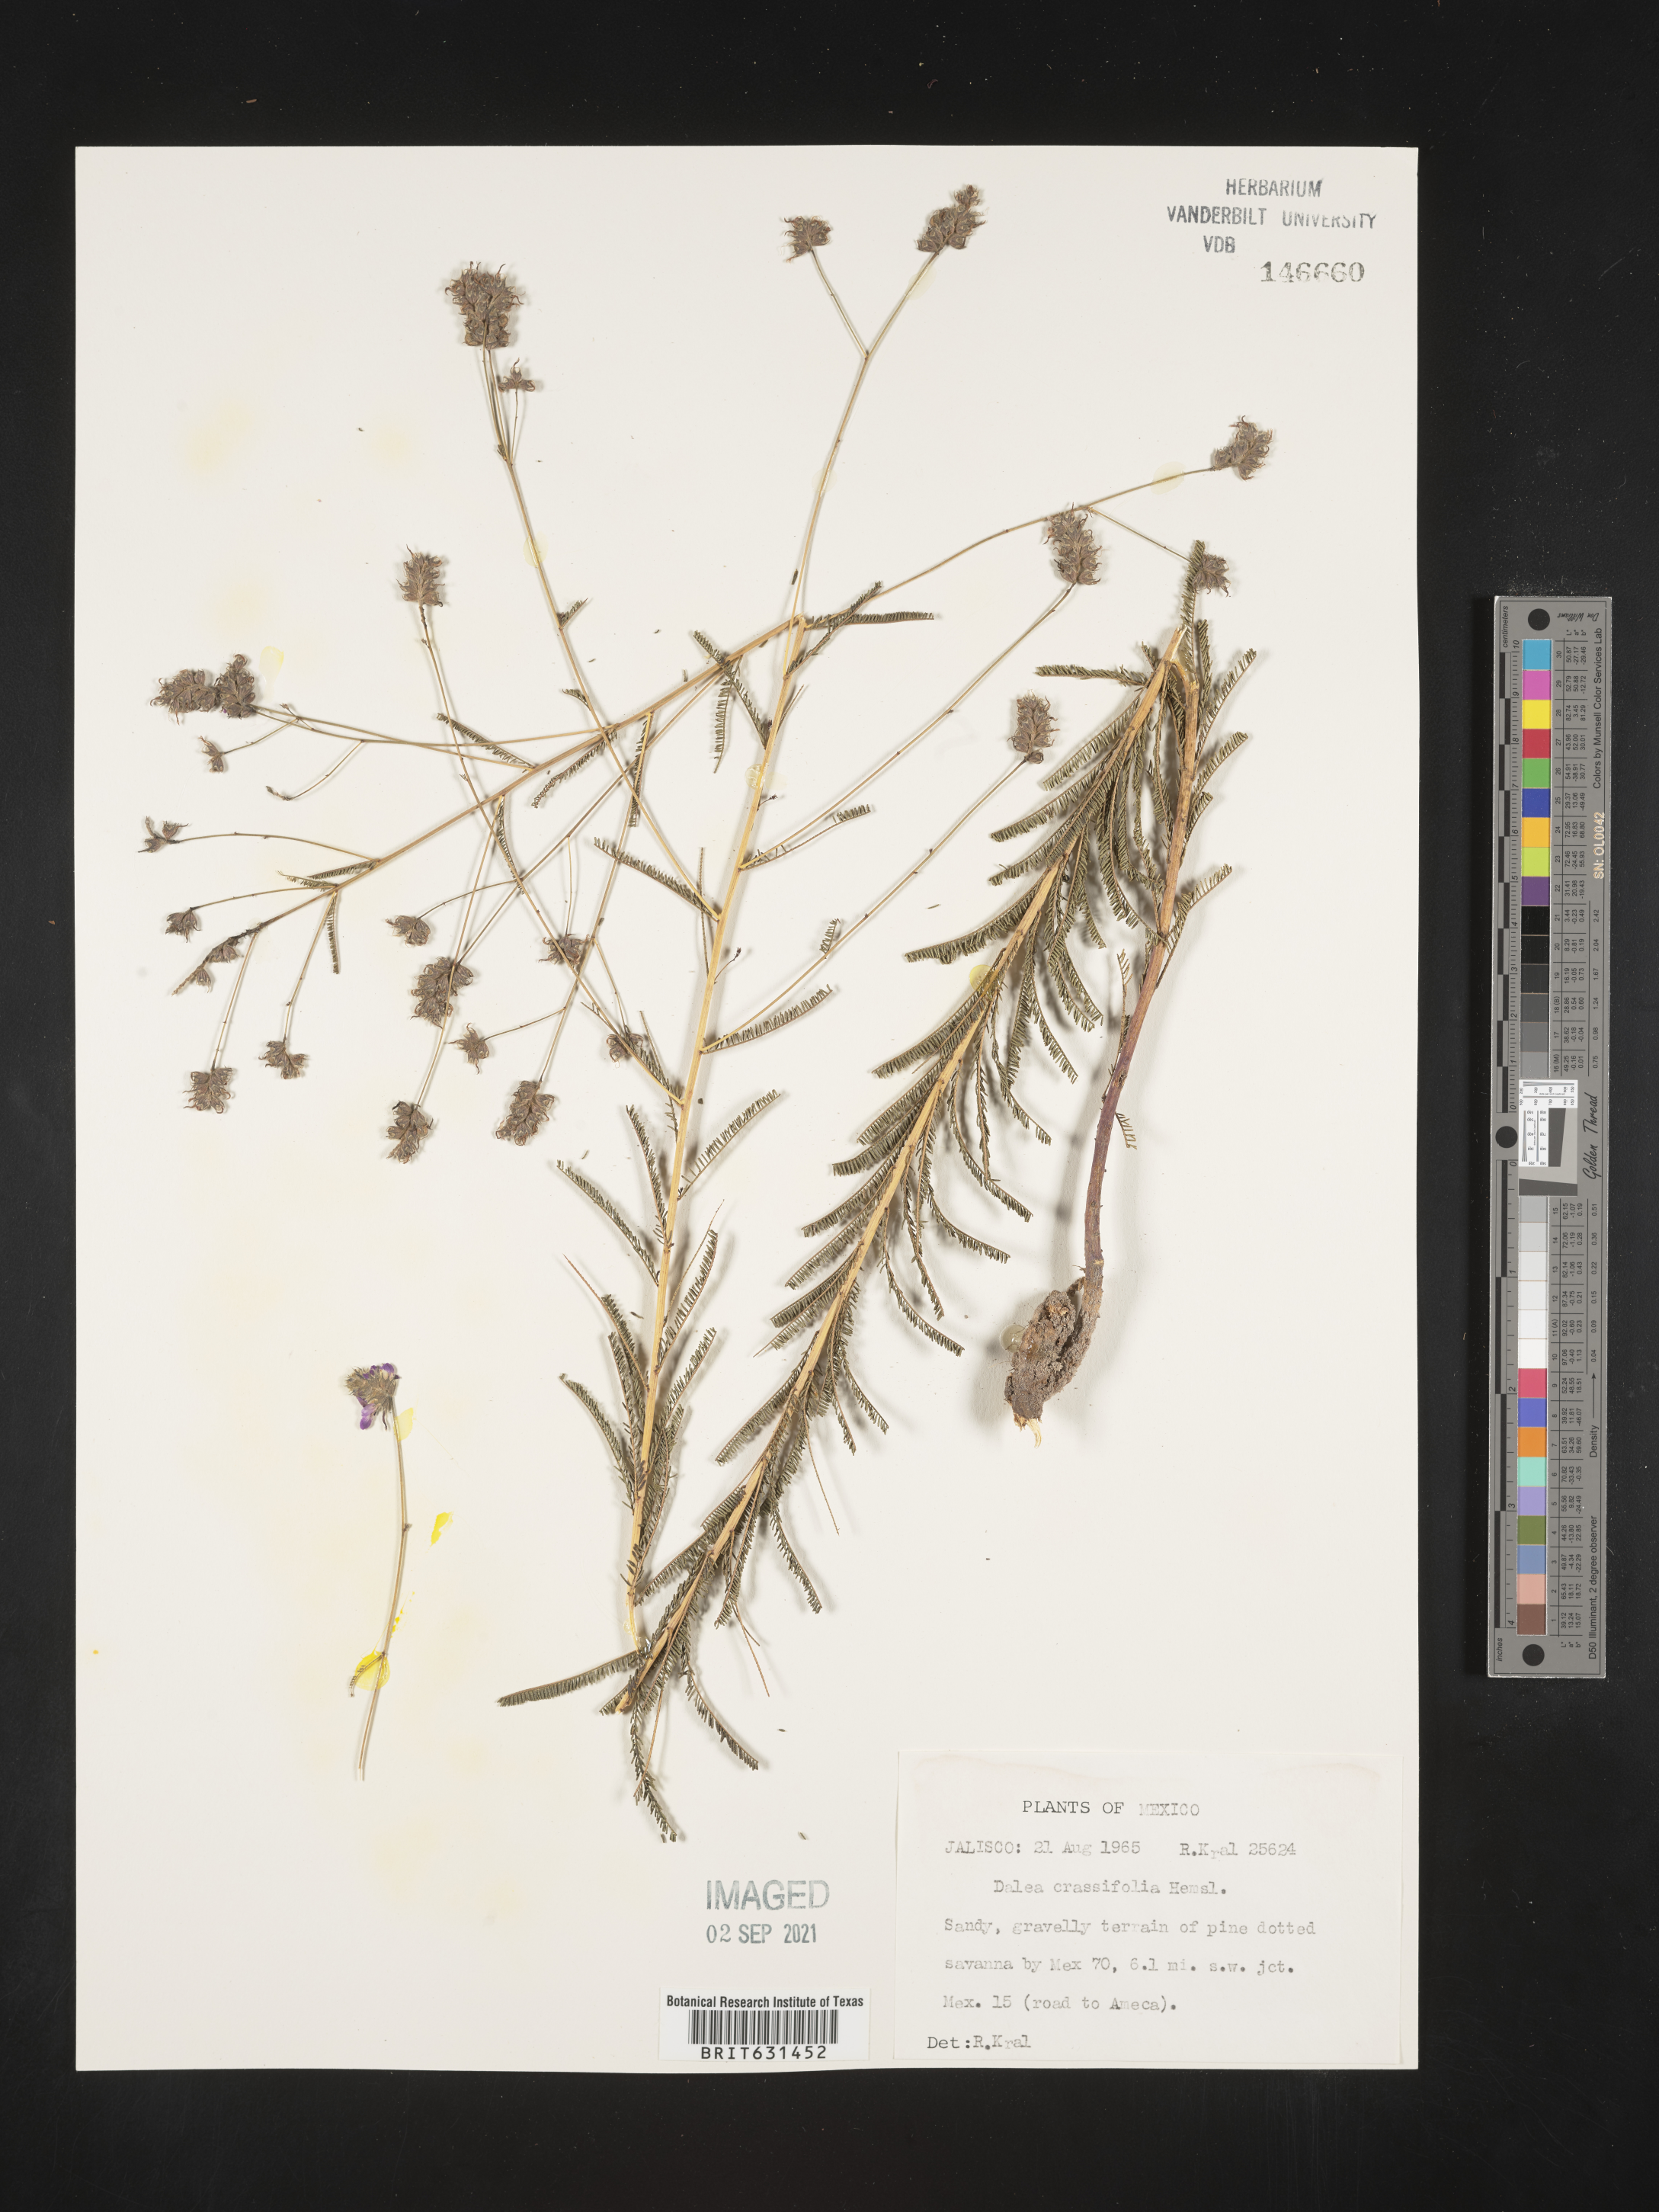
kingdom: Plantae
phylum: Tracheophyta
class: Magnoliopsida
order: Fabales
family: Fabaceae
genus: Dalea
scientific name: Dalea crassifolia
